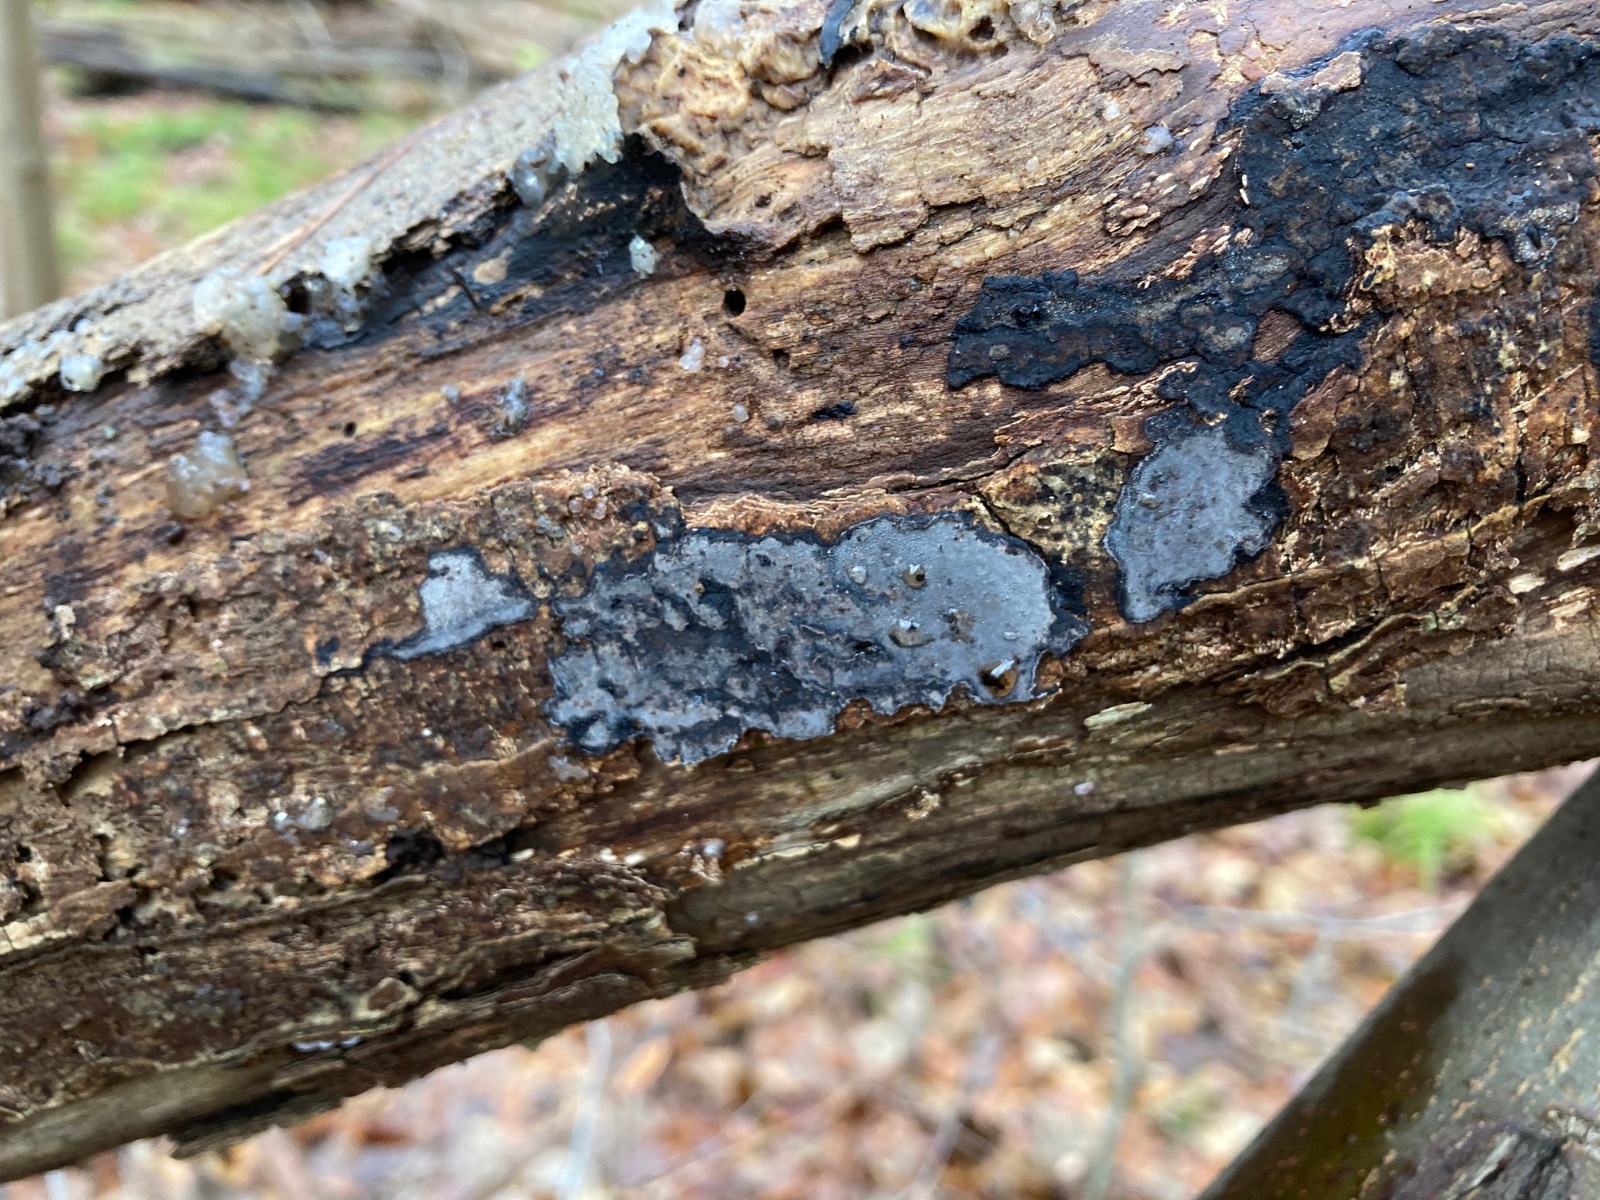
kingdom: Fungi
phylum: Basidiomycota
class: Agaricomycetes
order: Russulales
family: Peniophoraceae
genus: Peniophora
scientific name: Peniophora limitata
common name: mørkrandet voksskind
